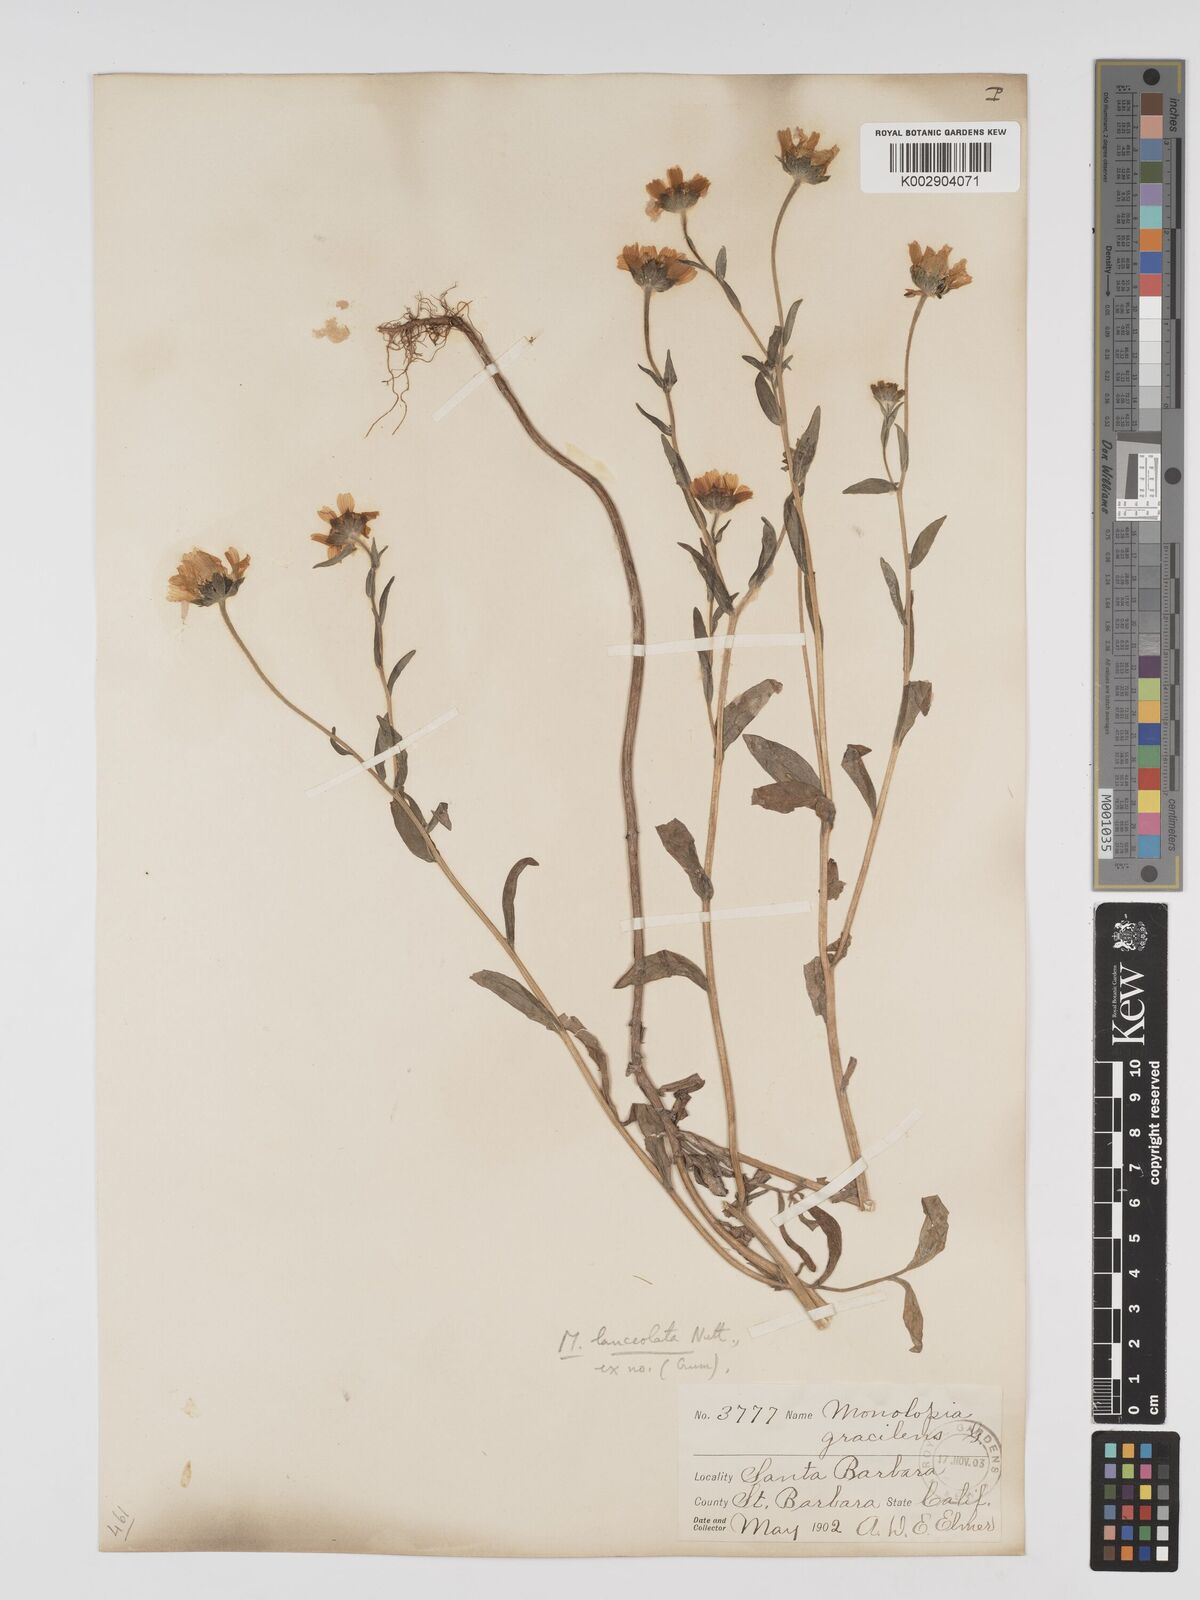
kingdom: Plantae
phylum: Tracheophyta
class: Magnoliopsida
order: Asterales
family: Asteraceae
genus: Monolopia
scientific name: Monolopia lanceolata
